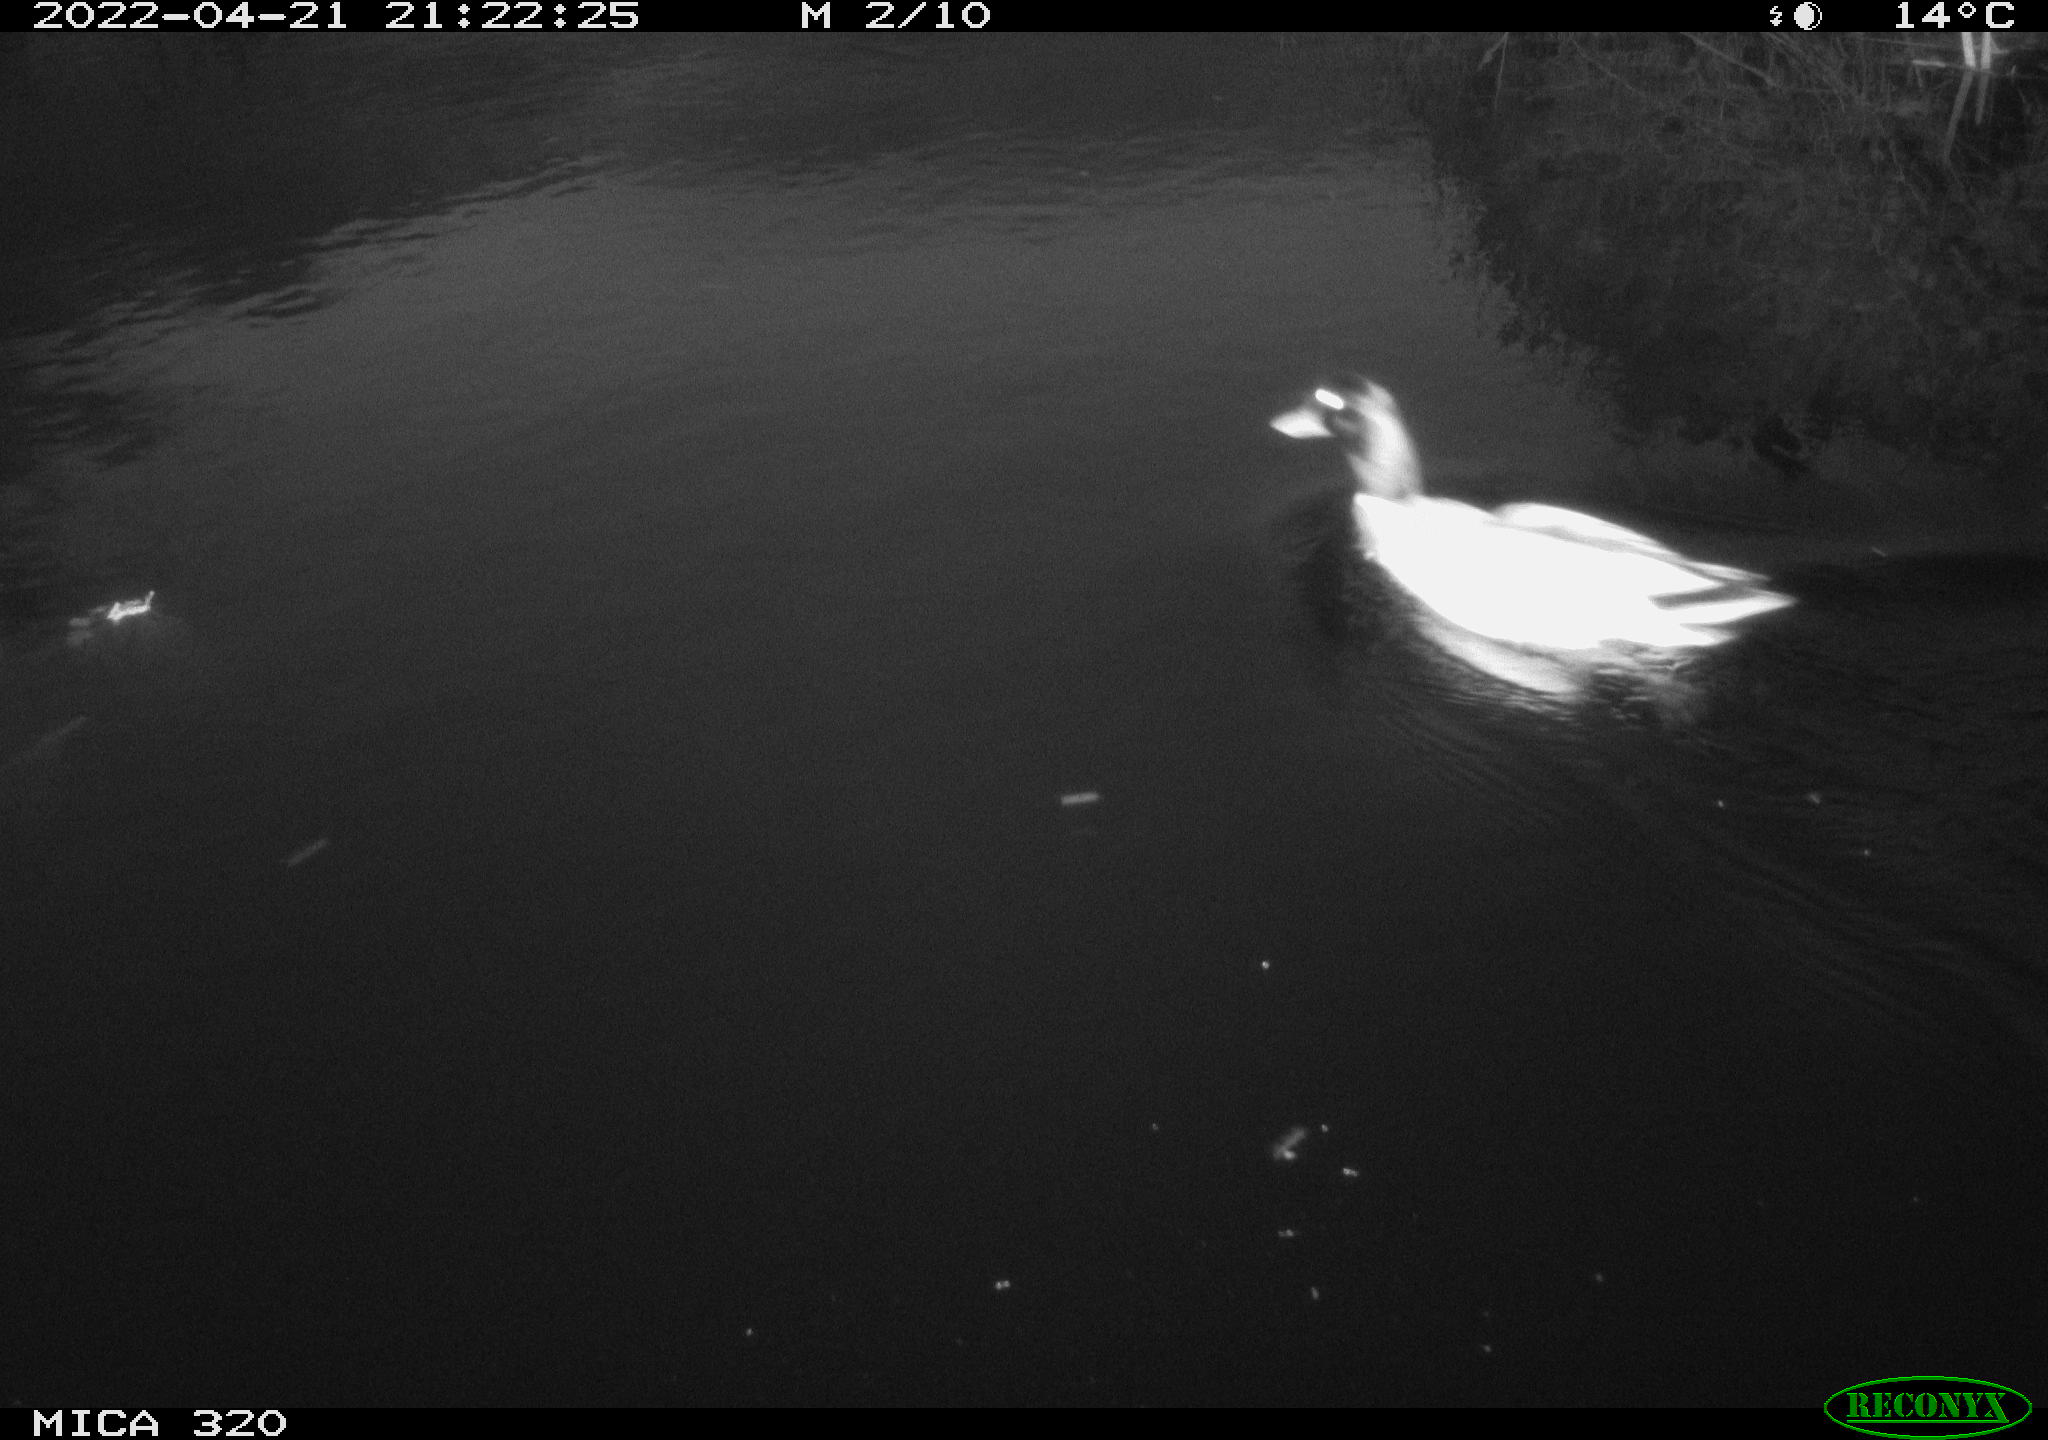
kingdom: Animalia
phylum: Chordata
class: Aves
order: Anseriformes
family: Anatidae
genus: Anas
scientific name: Anas platyrhynchos
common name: Mallard
